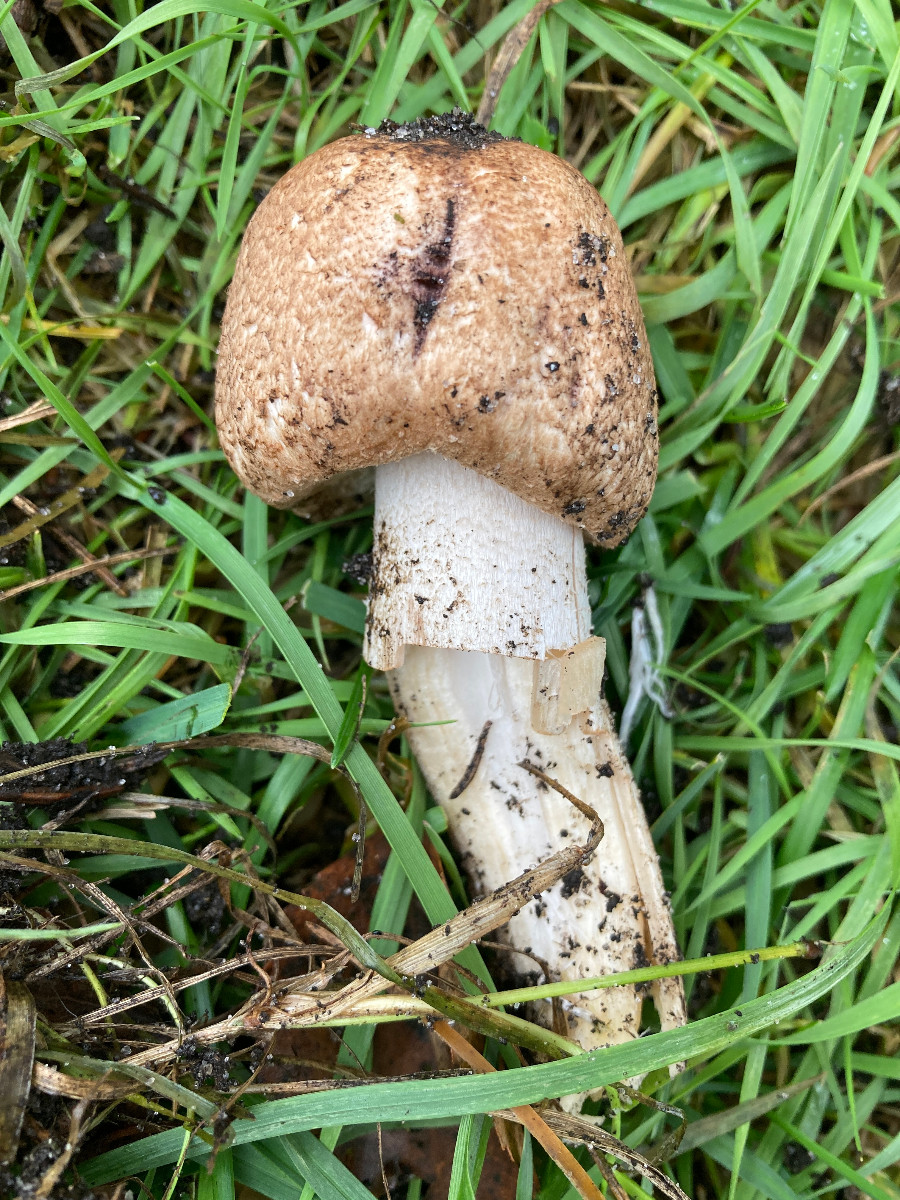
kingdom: Fungi
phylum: Basidiomycota
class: Agaricomycetes
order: Agaricales
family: Agaricaceae
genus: Agaricus
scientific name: Agaricus
